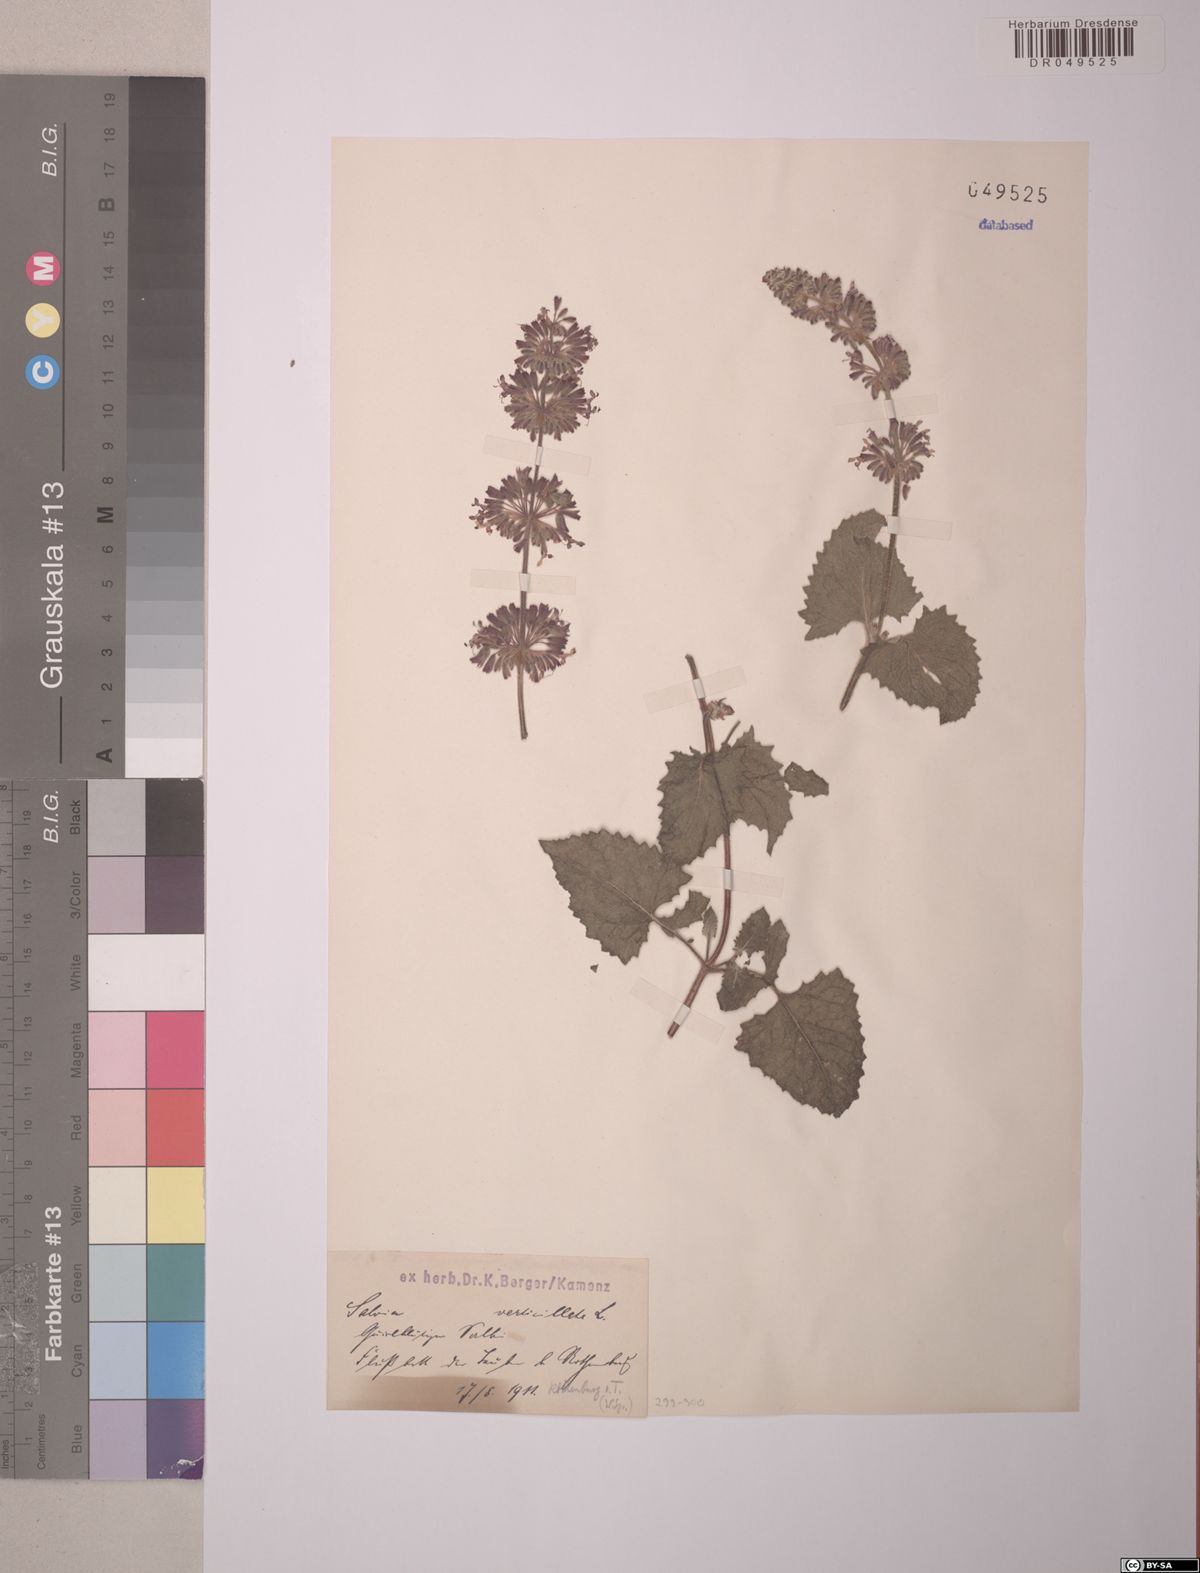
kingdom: Plantae
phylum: Tracheophyta
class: Magnoliopsida
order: Lamiales
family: Lamiaceae
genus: Salvia
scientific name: Salvia verticillata
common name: Whorled clary
